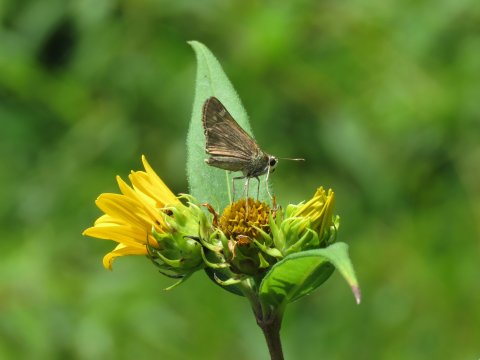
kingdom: Animalia
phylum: Arthropoda
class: Insecta
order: Lepidoptera
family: Hesperiidae
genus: Atalopedes
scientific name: Atalopedes campestris
